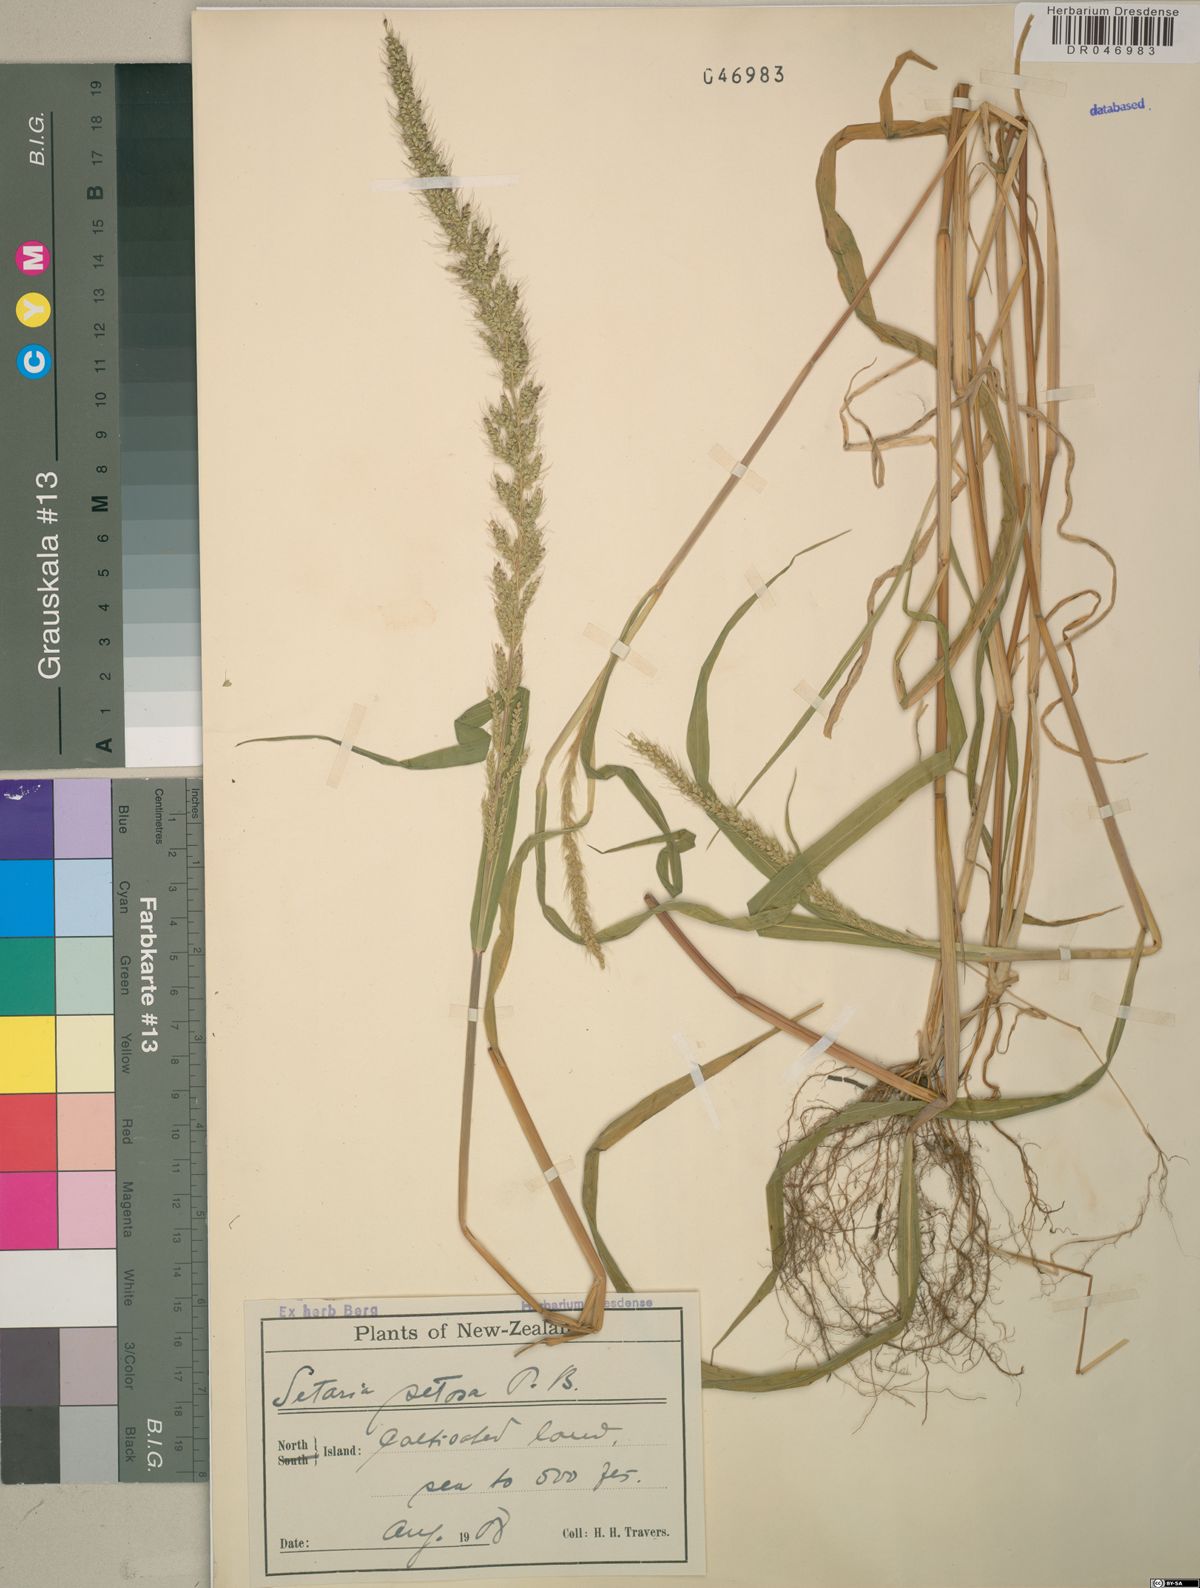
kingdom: Plantae
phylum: Tracheophyta
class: Liliopsida
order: Poales
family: Poaceae
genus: Setaria
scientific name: Setaria setosa
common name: West indies bristle grass
